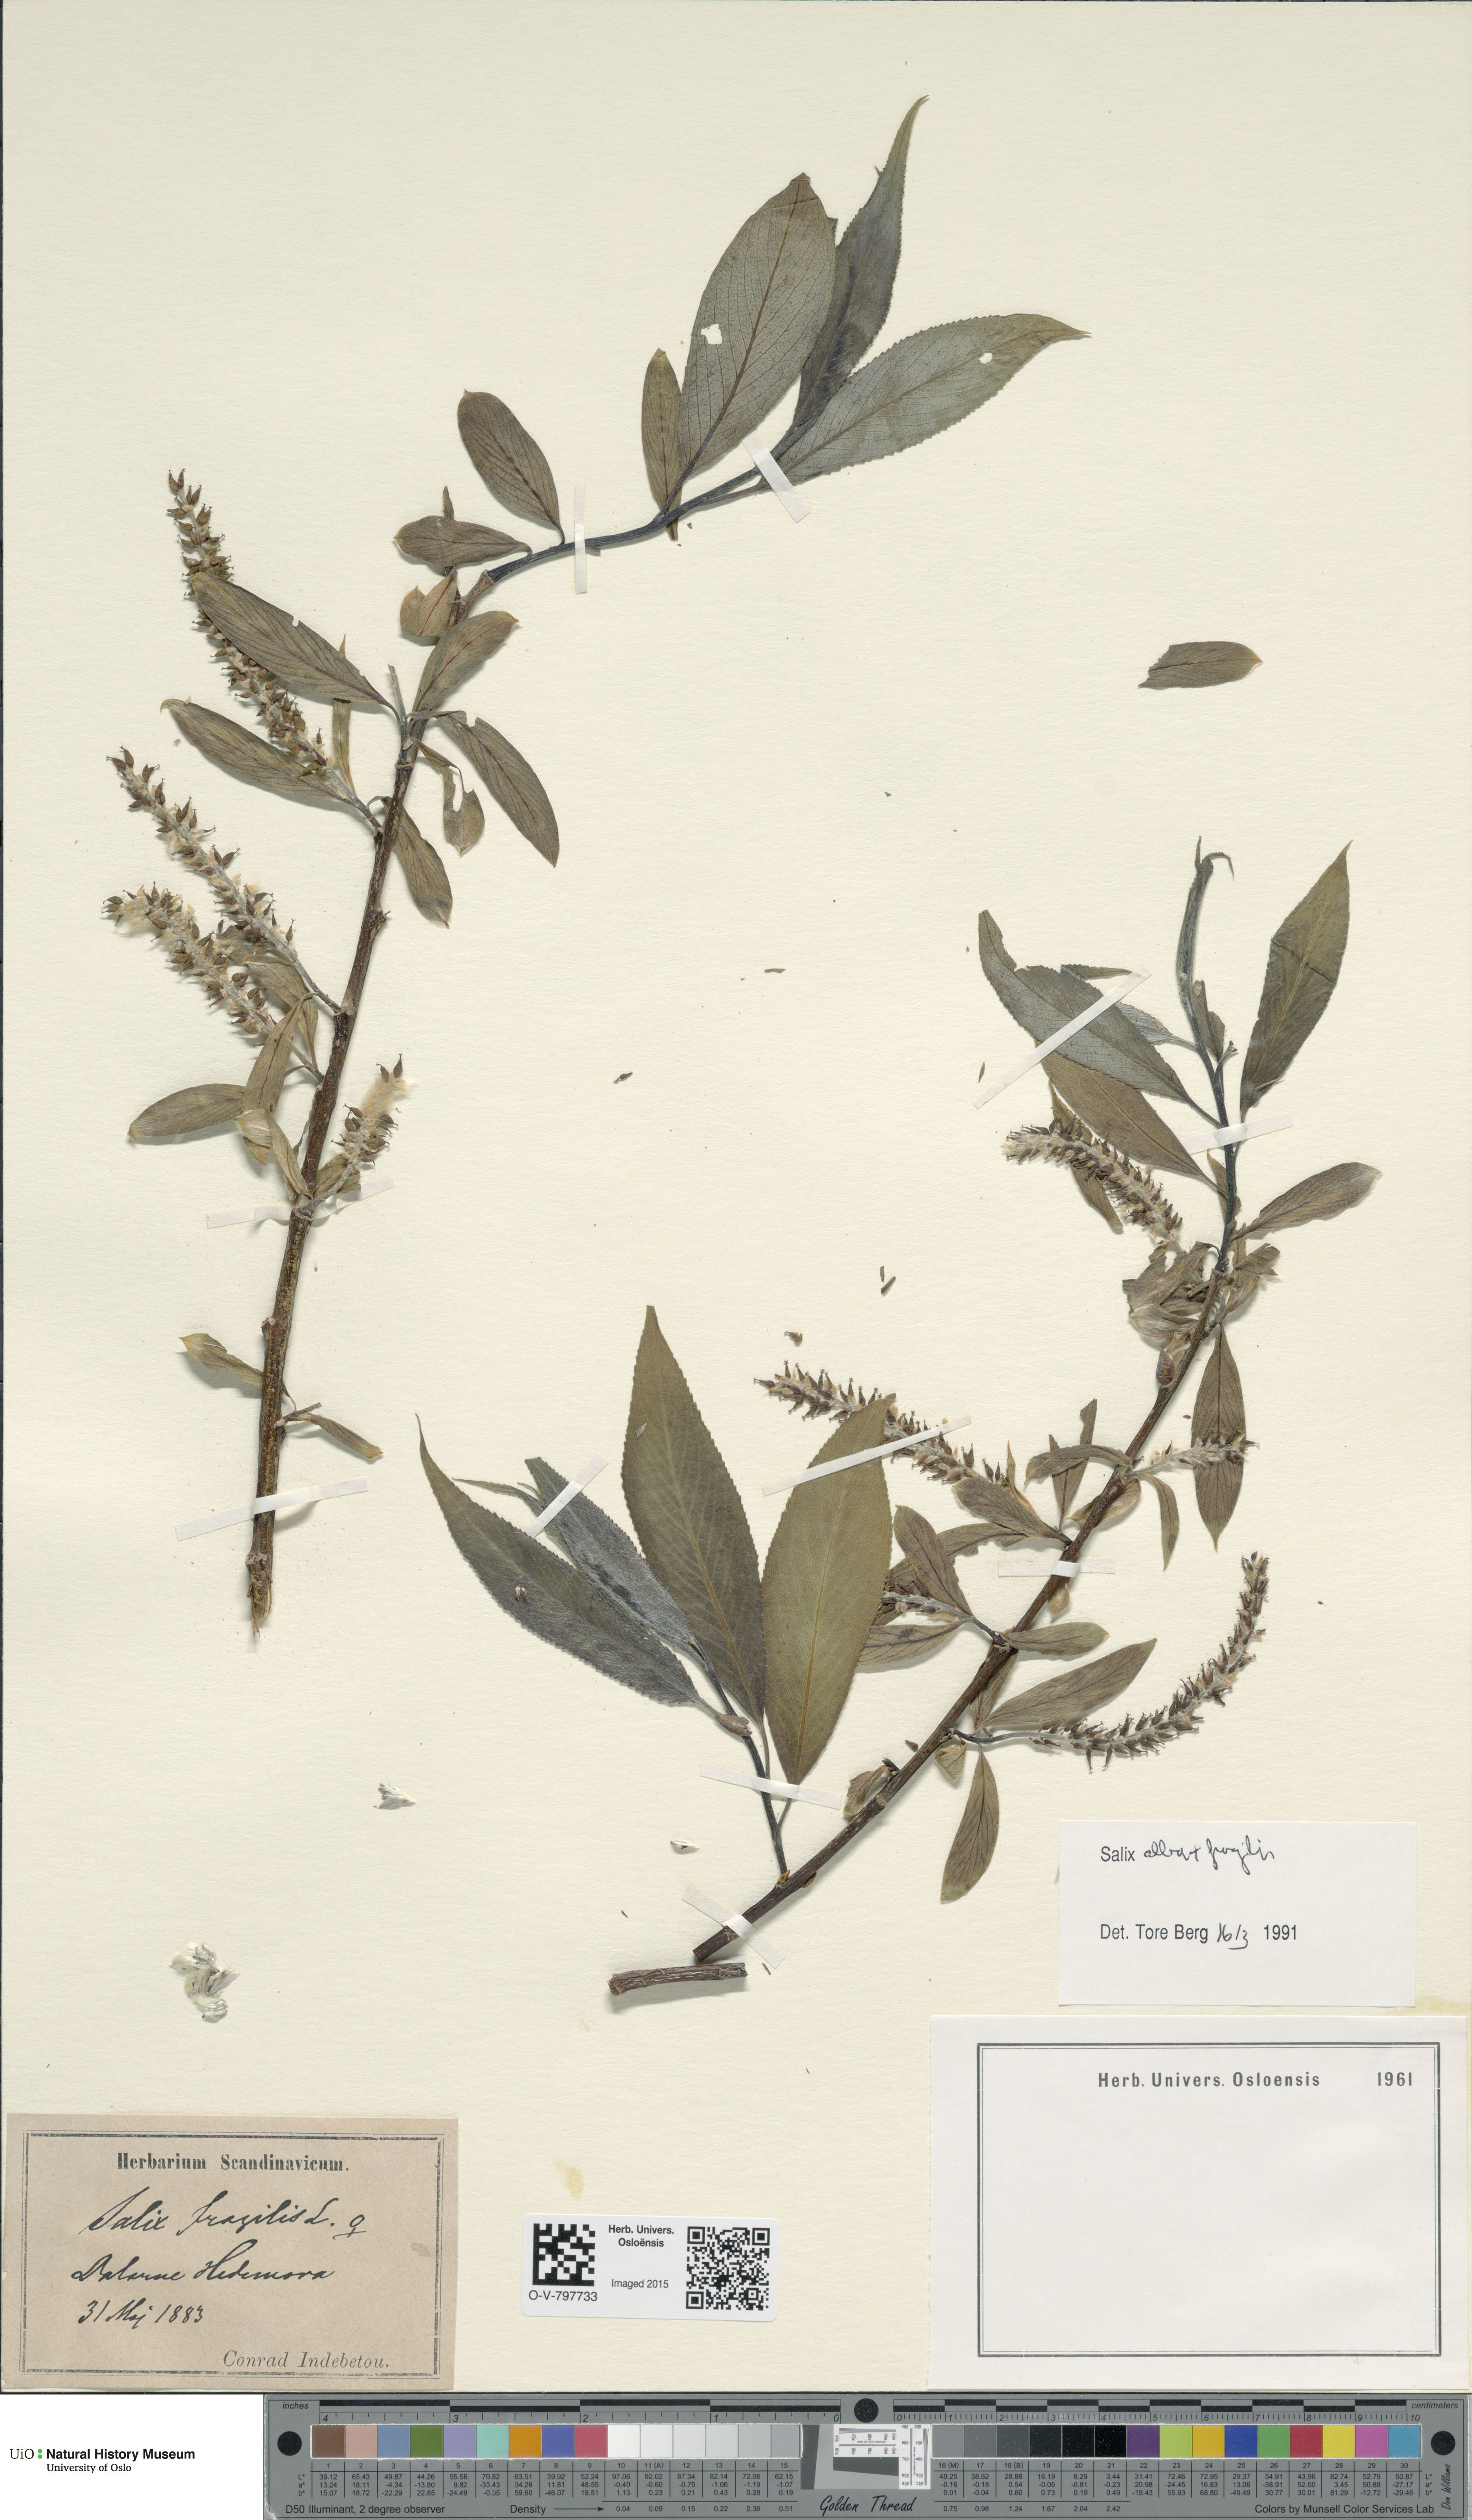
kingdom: Plantae
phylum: Tracheophyta
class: Magnoliopsida
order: Malpighiales
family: Salicaceae
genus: Salix
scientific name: Salix
